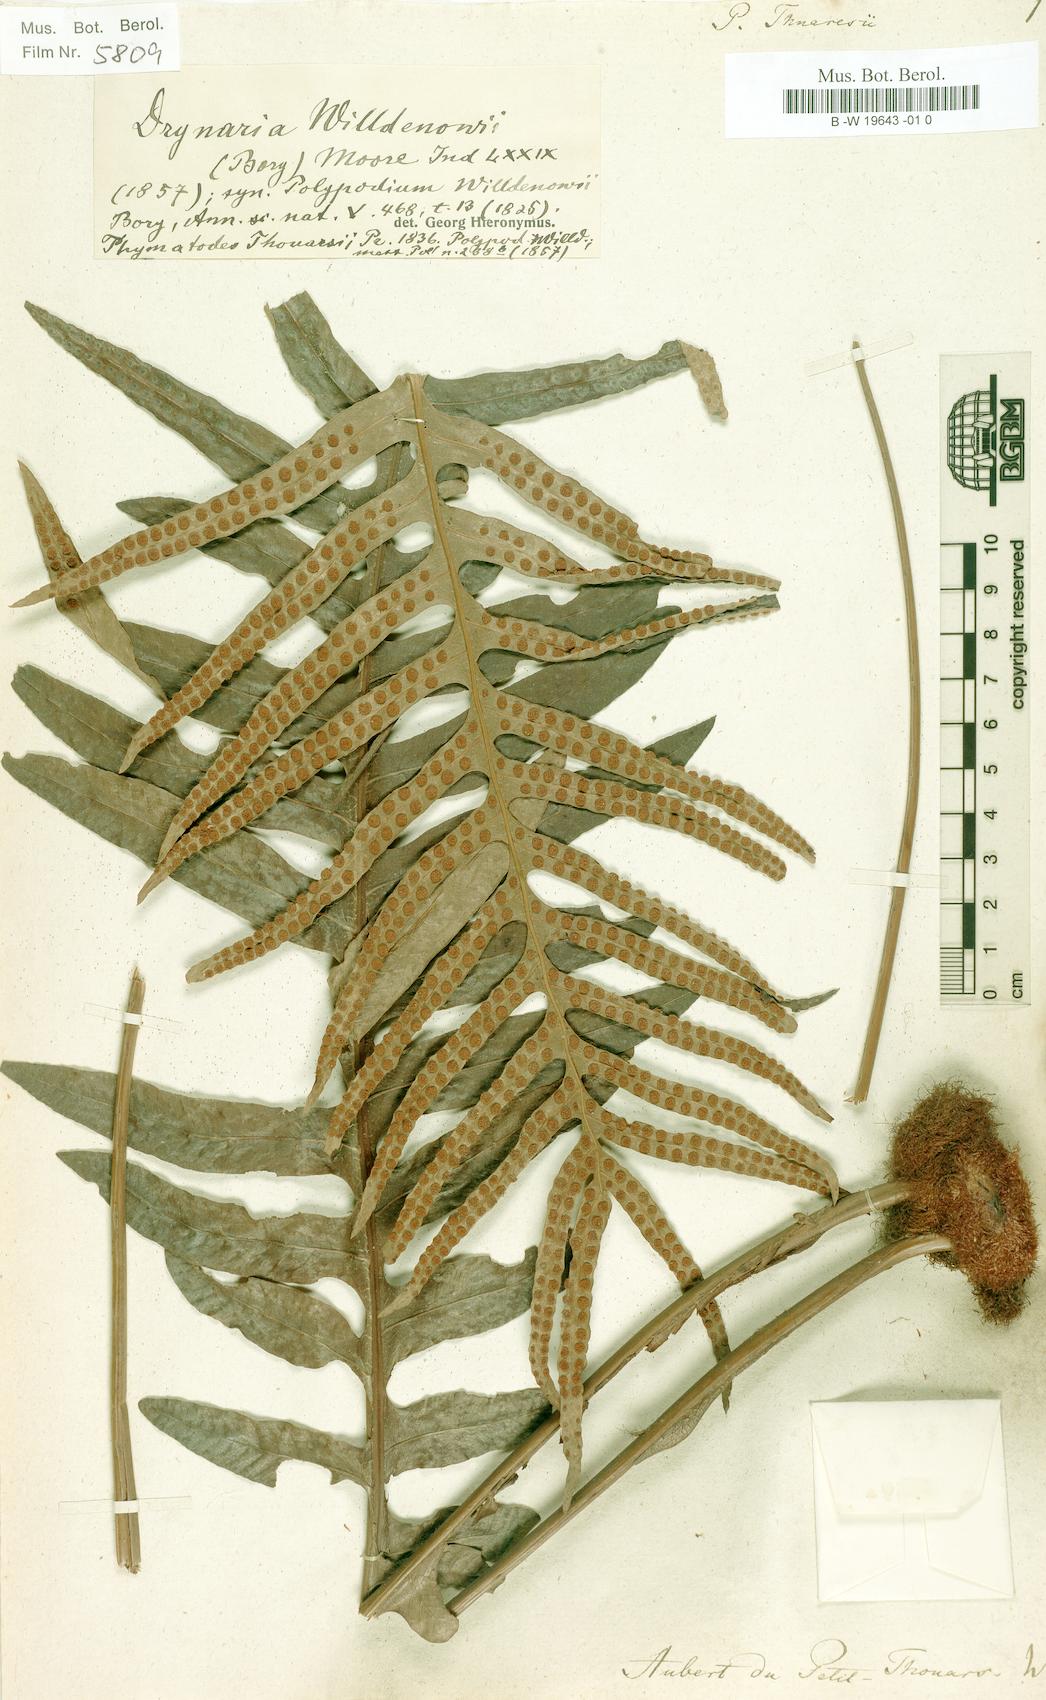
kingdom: Plantae
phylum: Tracheophyta
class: Polypodiopsida
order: Polypodiales
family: Polypodiaceae
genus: Drynaria
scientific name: Drynaria willdenowii
